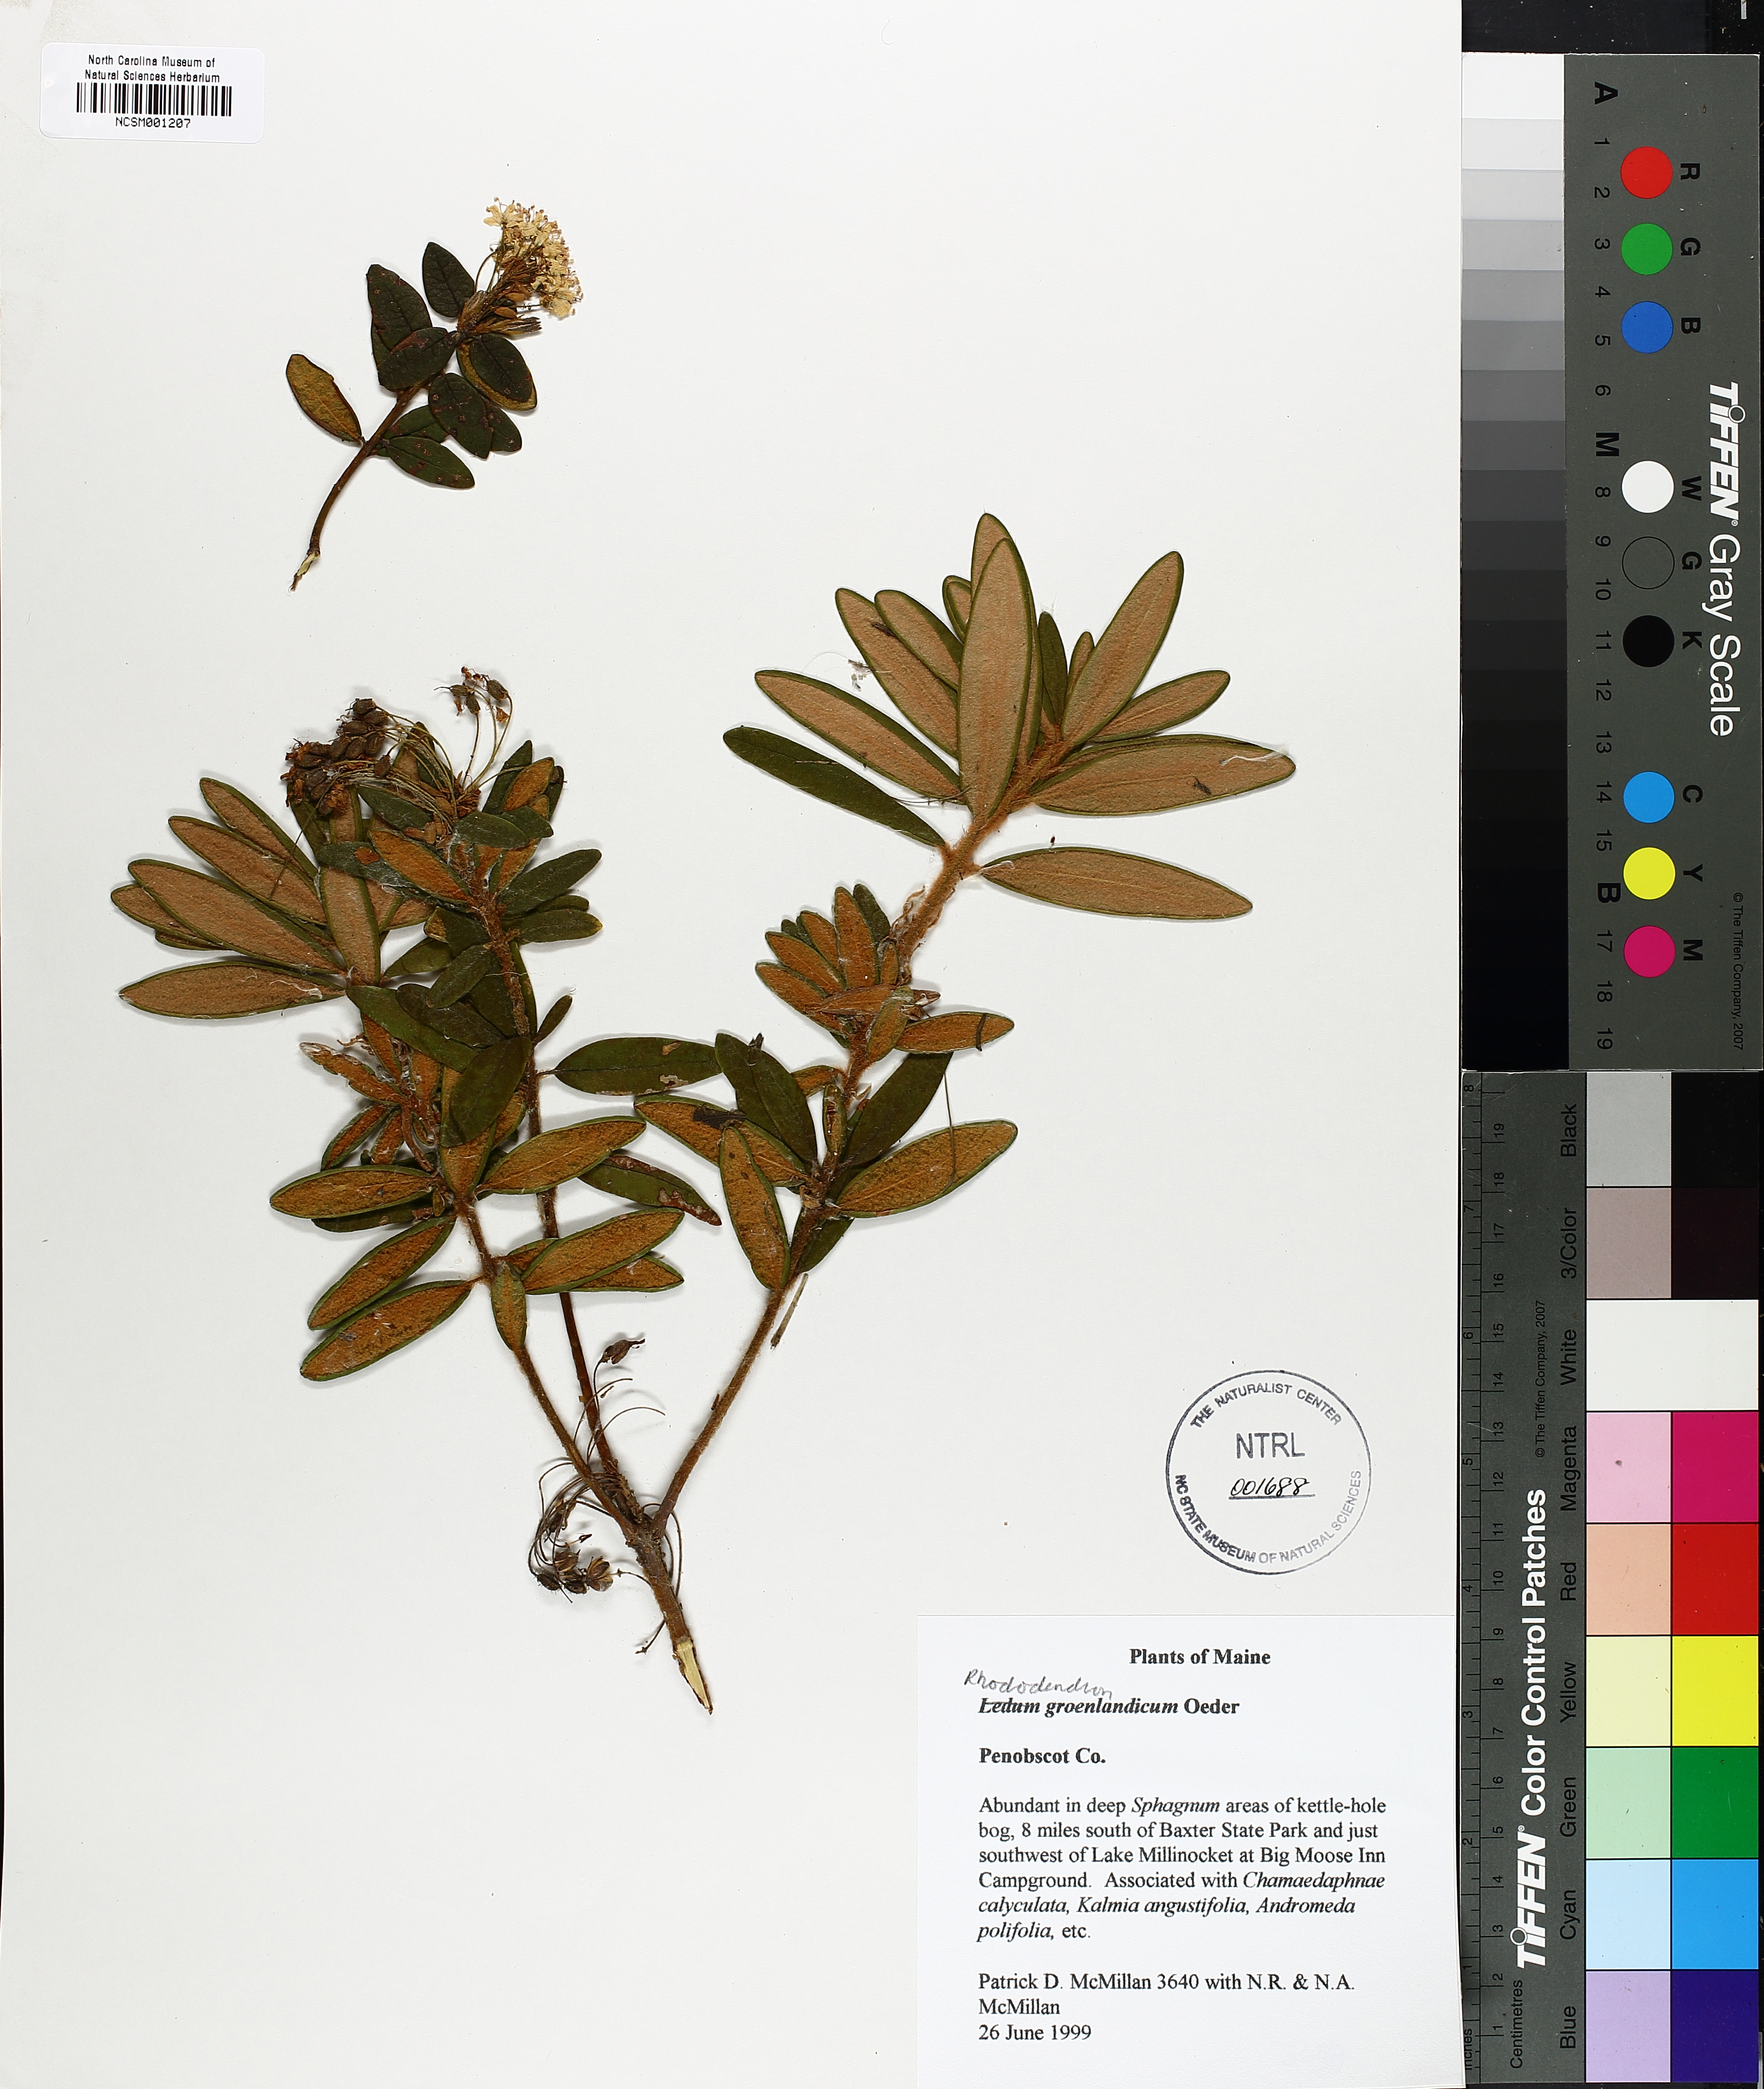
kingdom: Plantae
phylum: Tracheophyta
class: Magnoliopsida
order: Ericales
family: Ericaceae
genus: Rhododendron
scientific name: Rhododendron groenlandicum
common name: Bog labrador tea
